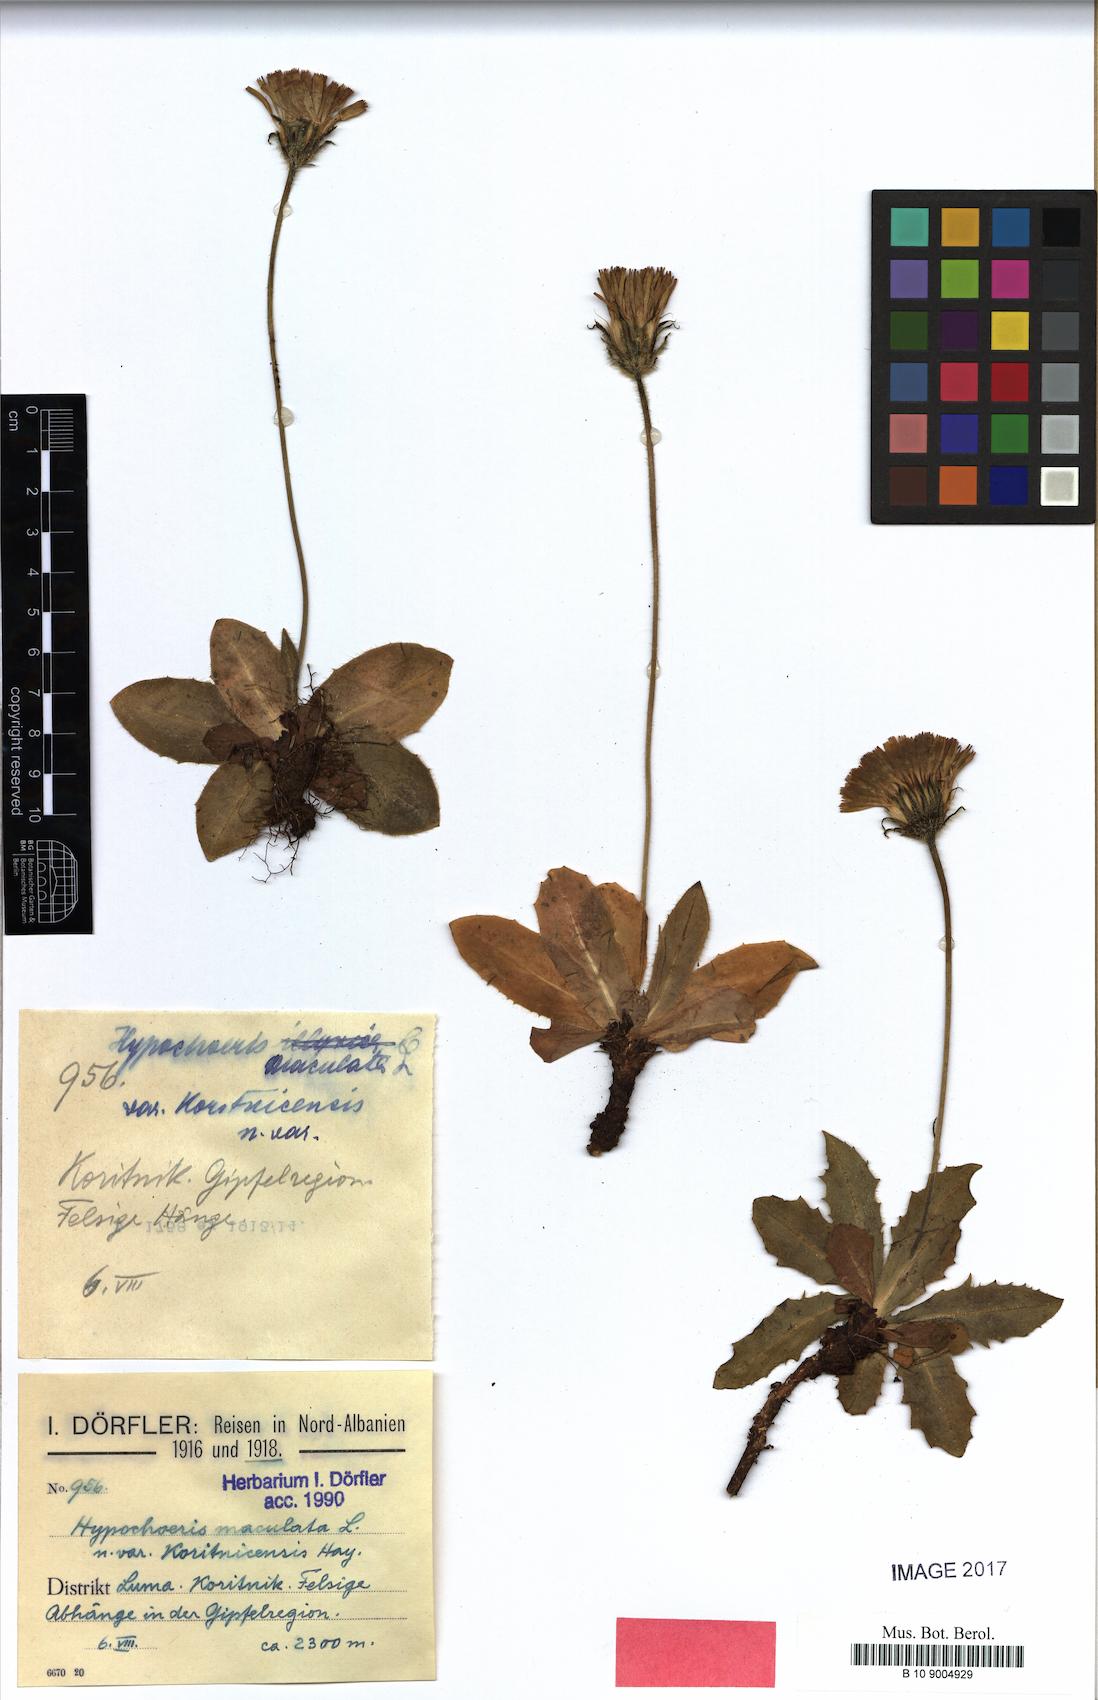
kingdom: Plantae
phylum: Tracheophyta
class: Magnoliopsida
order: Asterales
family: Asteraceae
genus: Trommsdorffia
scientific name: Trommsdorffia maculata
